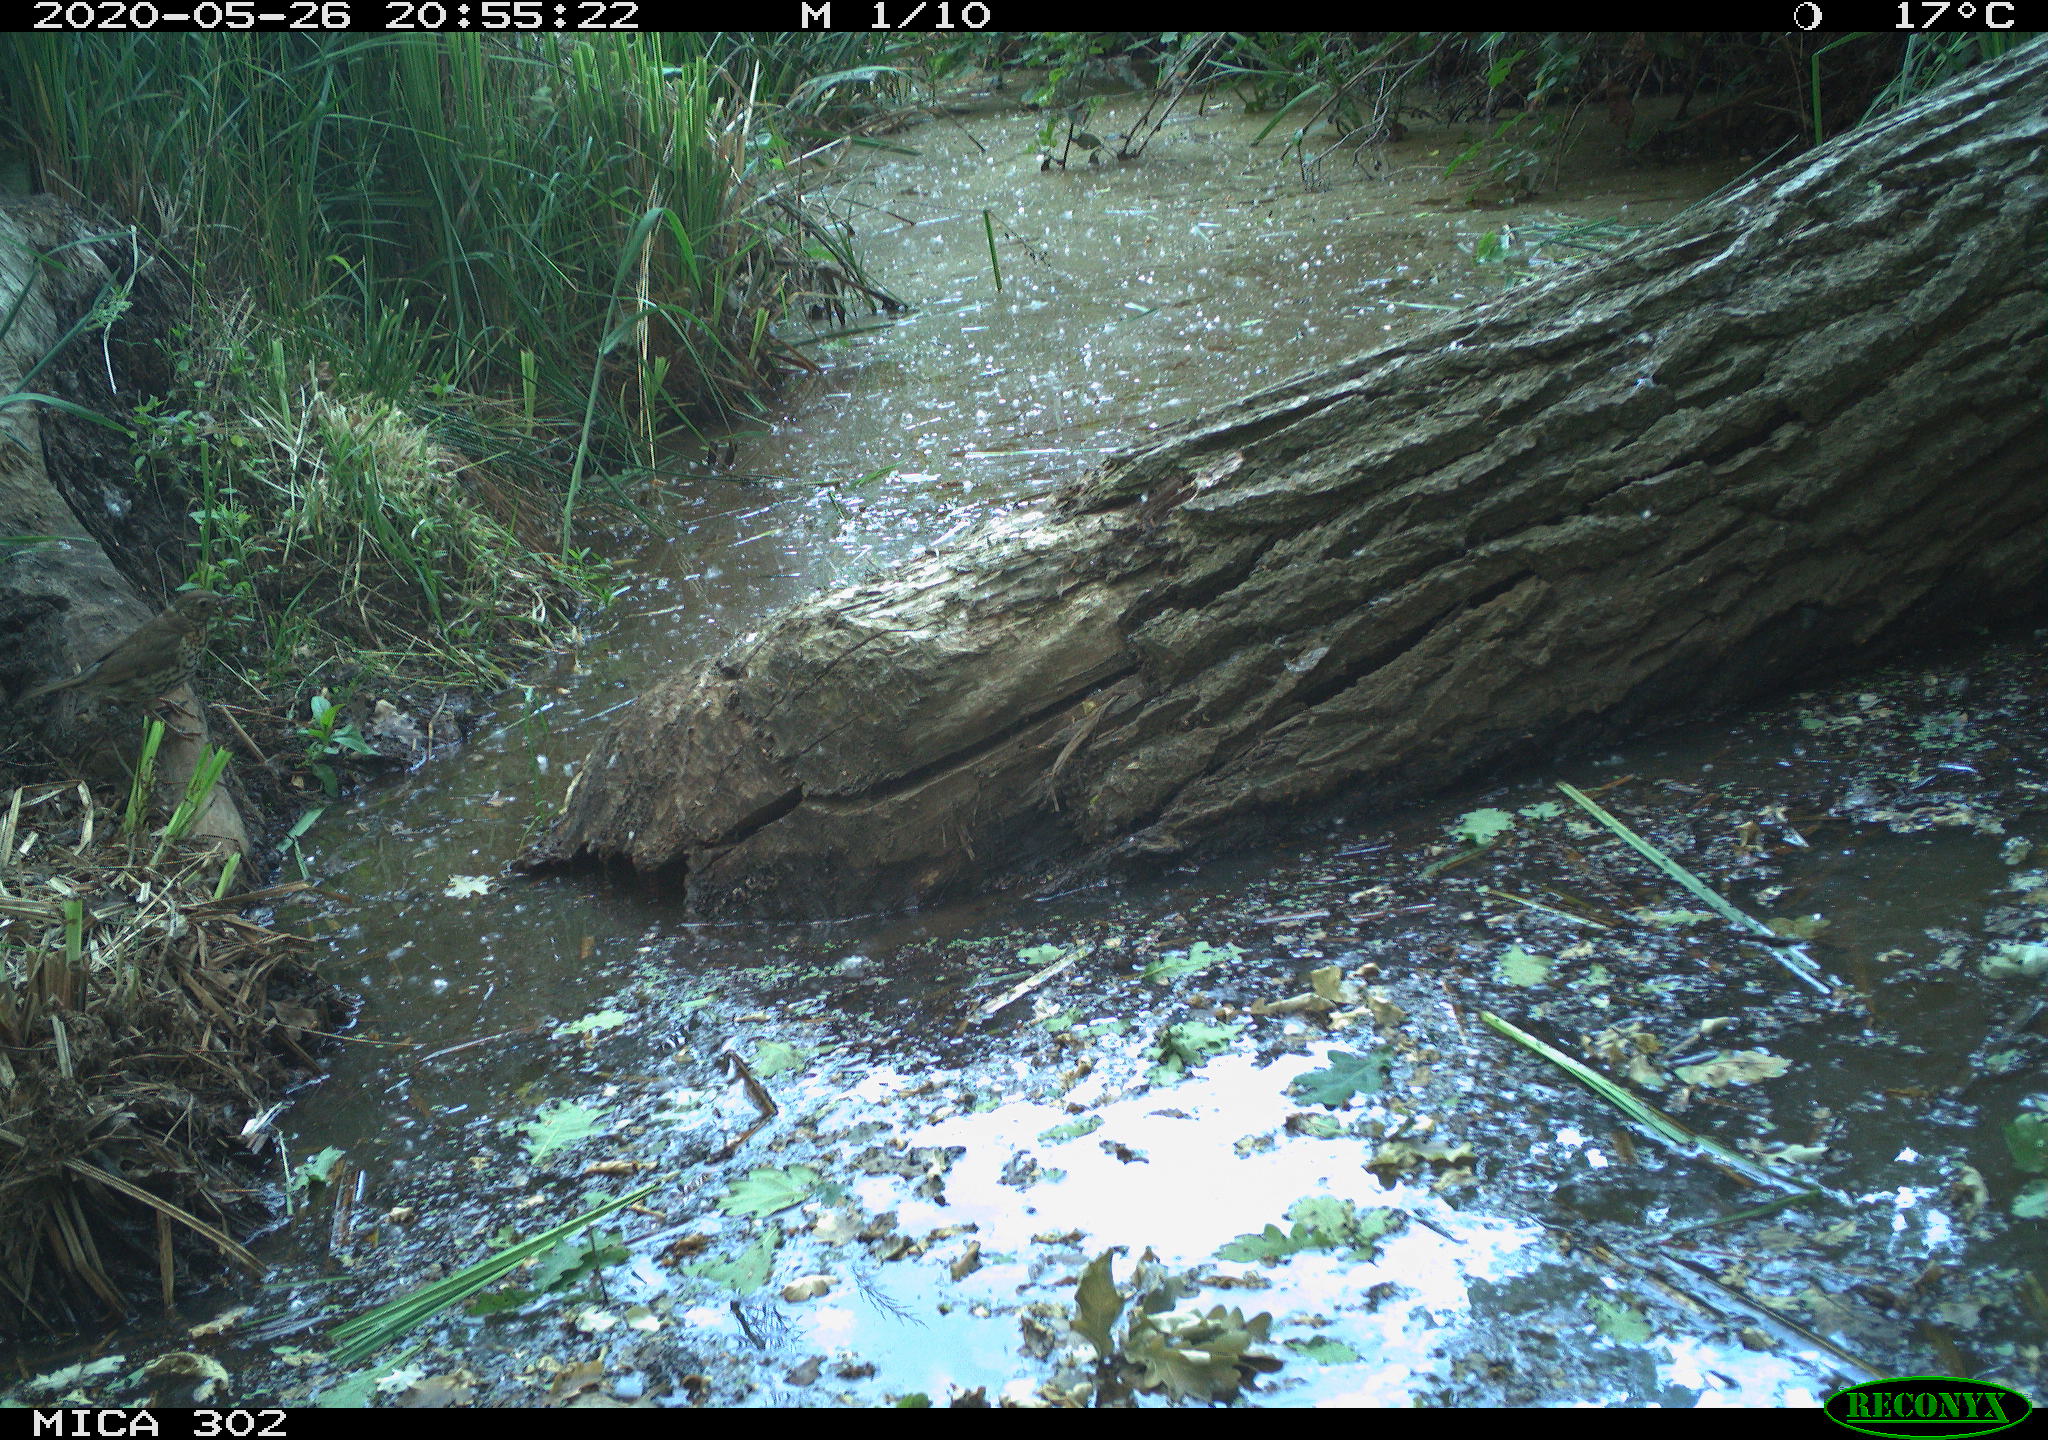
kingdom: Animalia
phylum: Chordata
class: Aves
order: Passeriformes
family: Turdidae
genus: Turdus
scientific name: Turdus philomelos
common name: Song thrush
